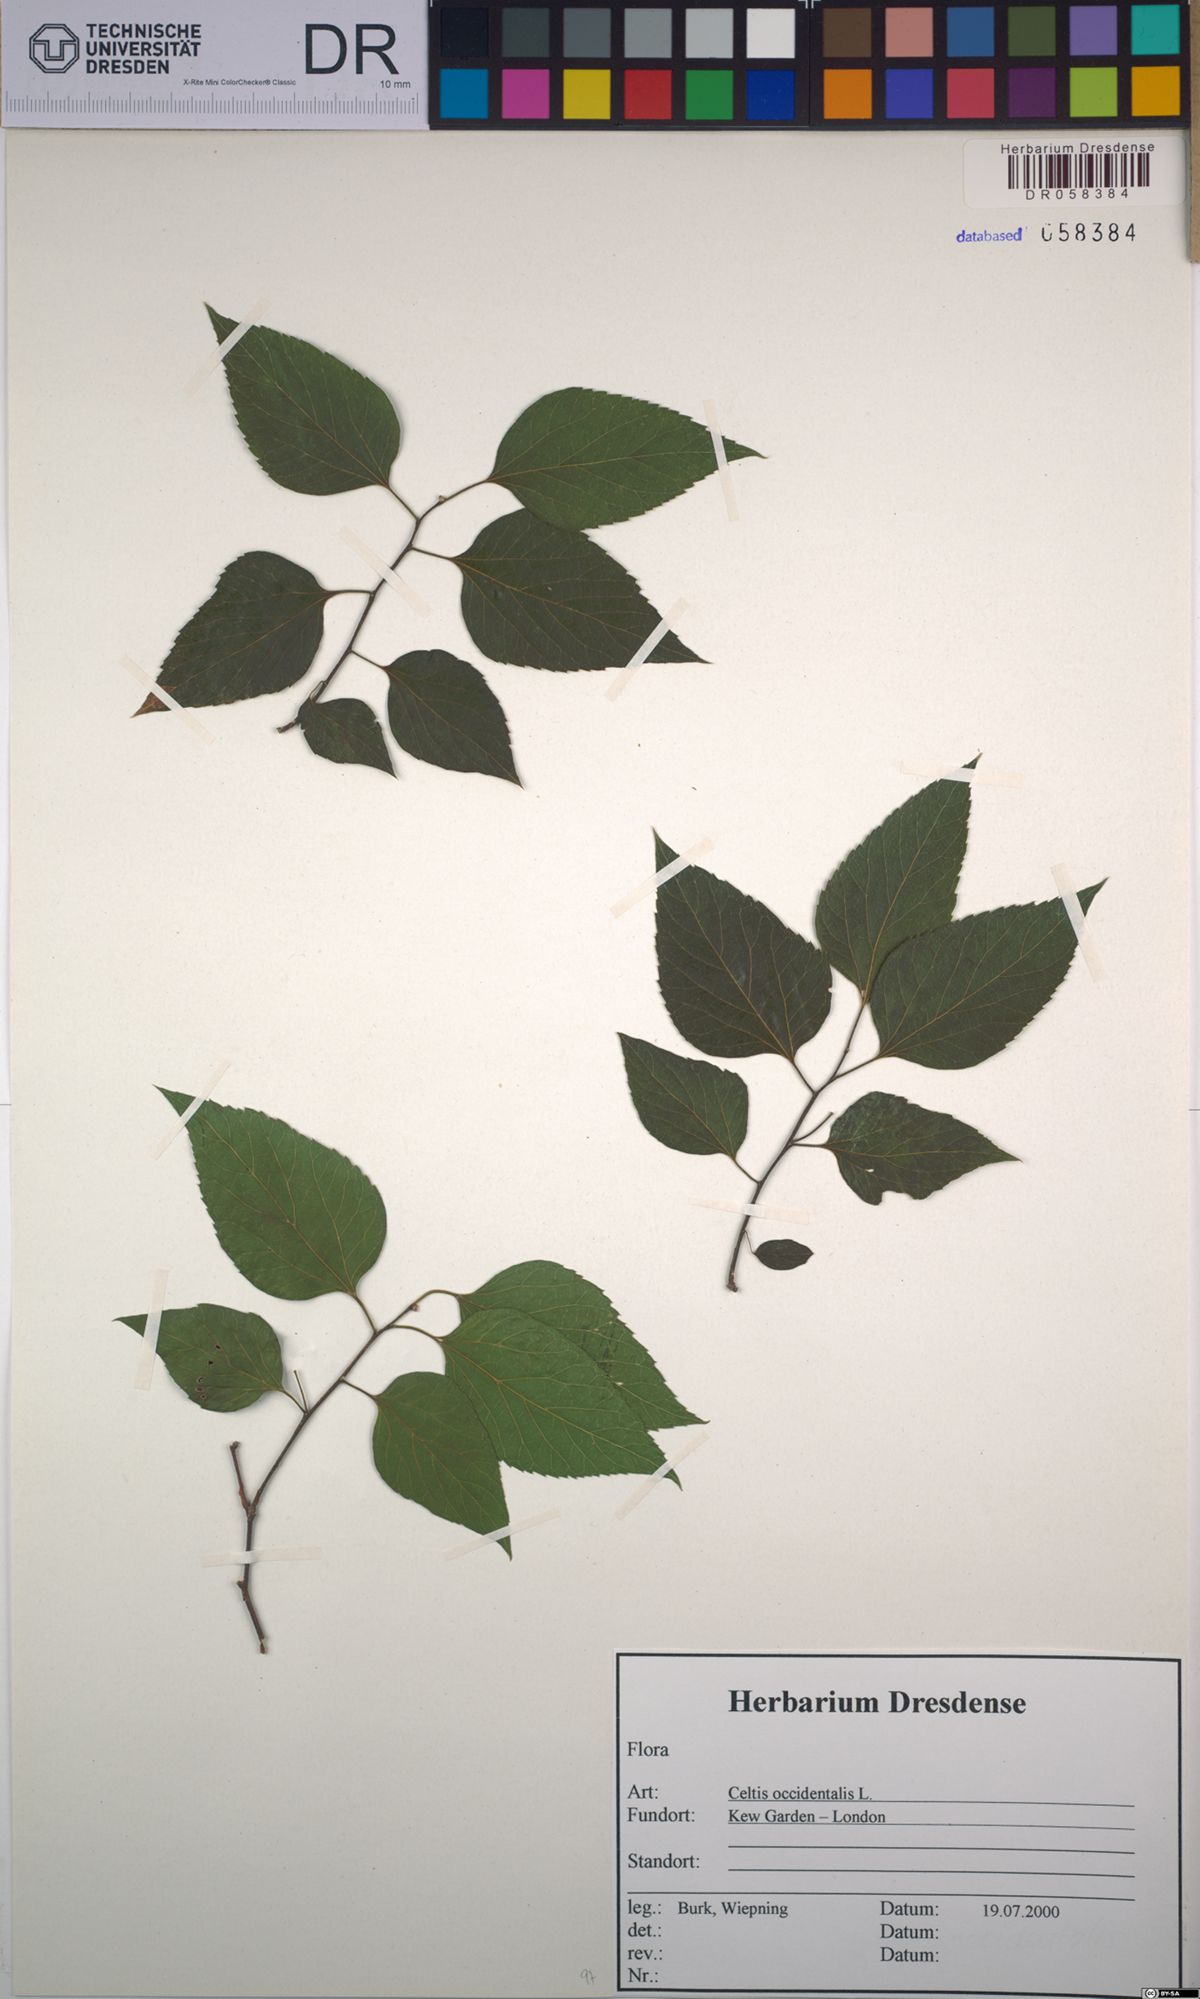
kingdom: Plantae
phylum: Tracheophyta
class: Magnoliopsida
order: Rosales
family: Cannabaceae
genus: Celtis
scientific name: Celtis occidentalis
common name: Common hackberry
